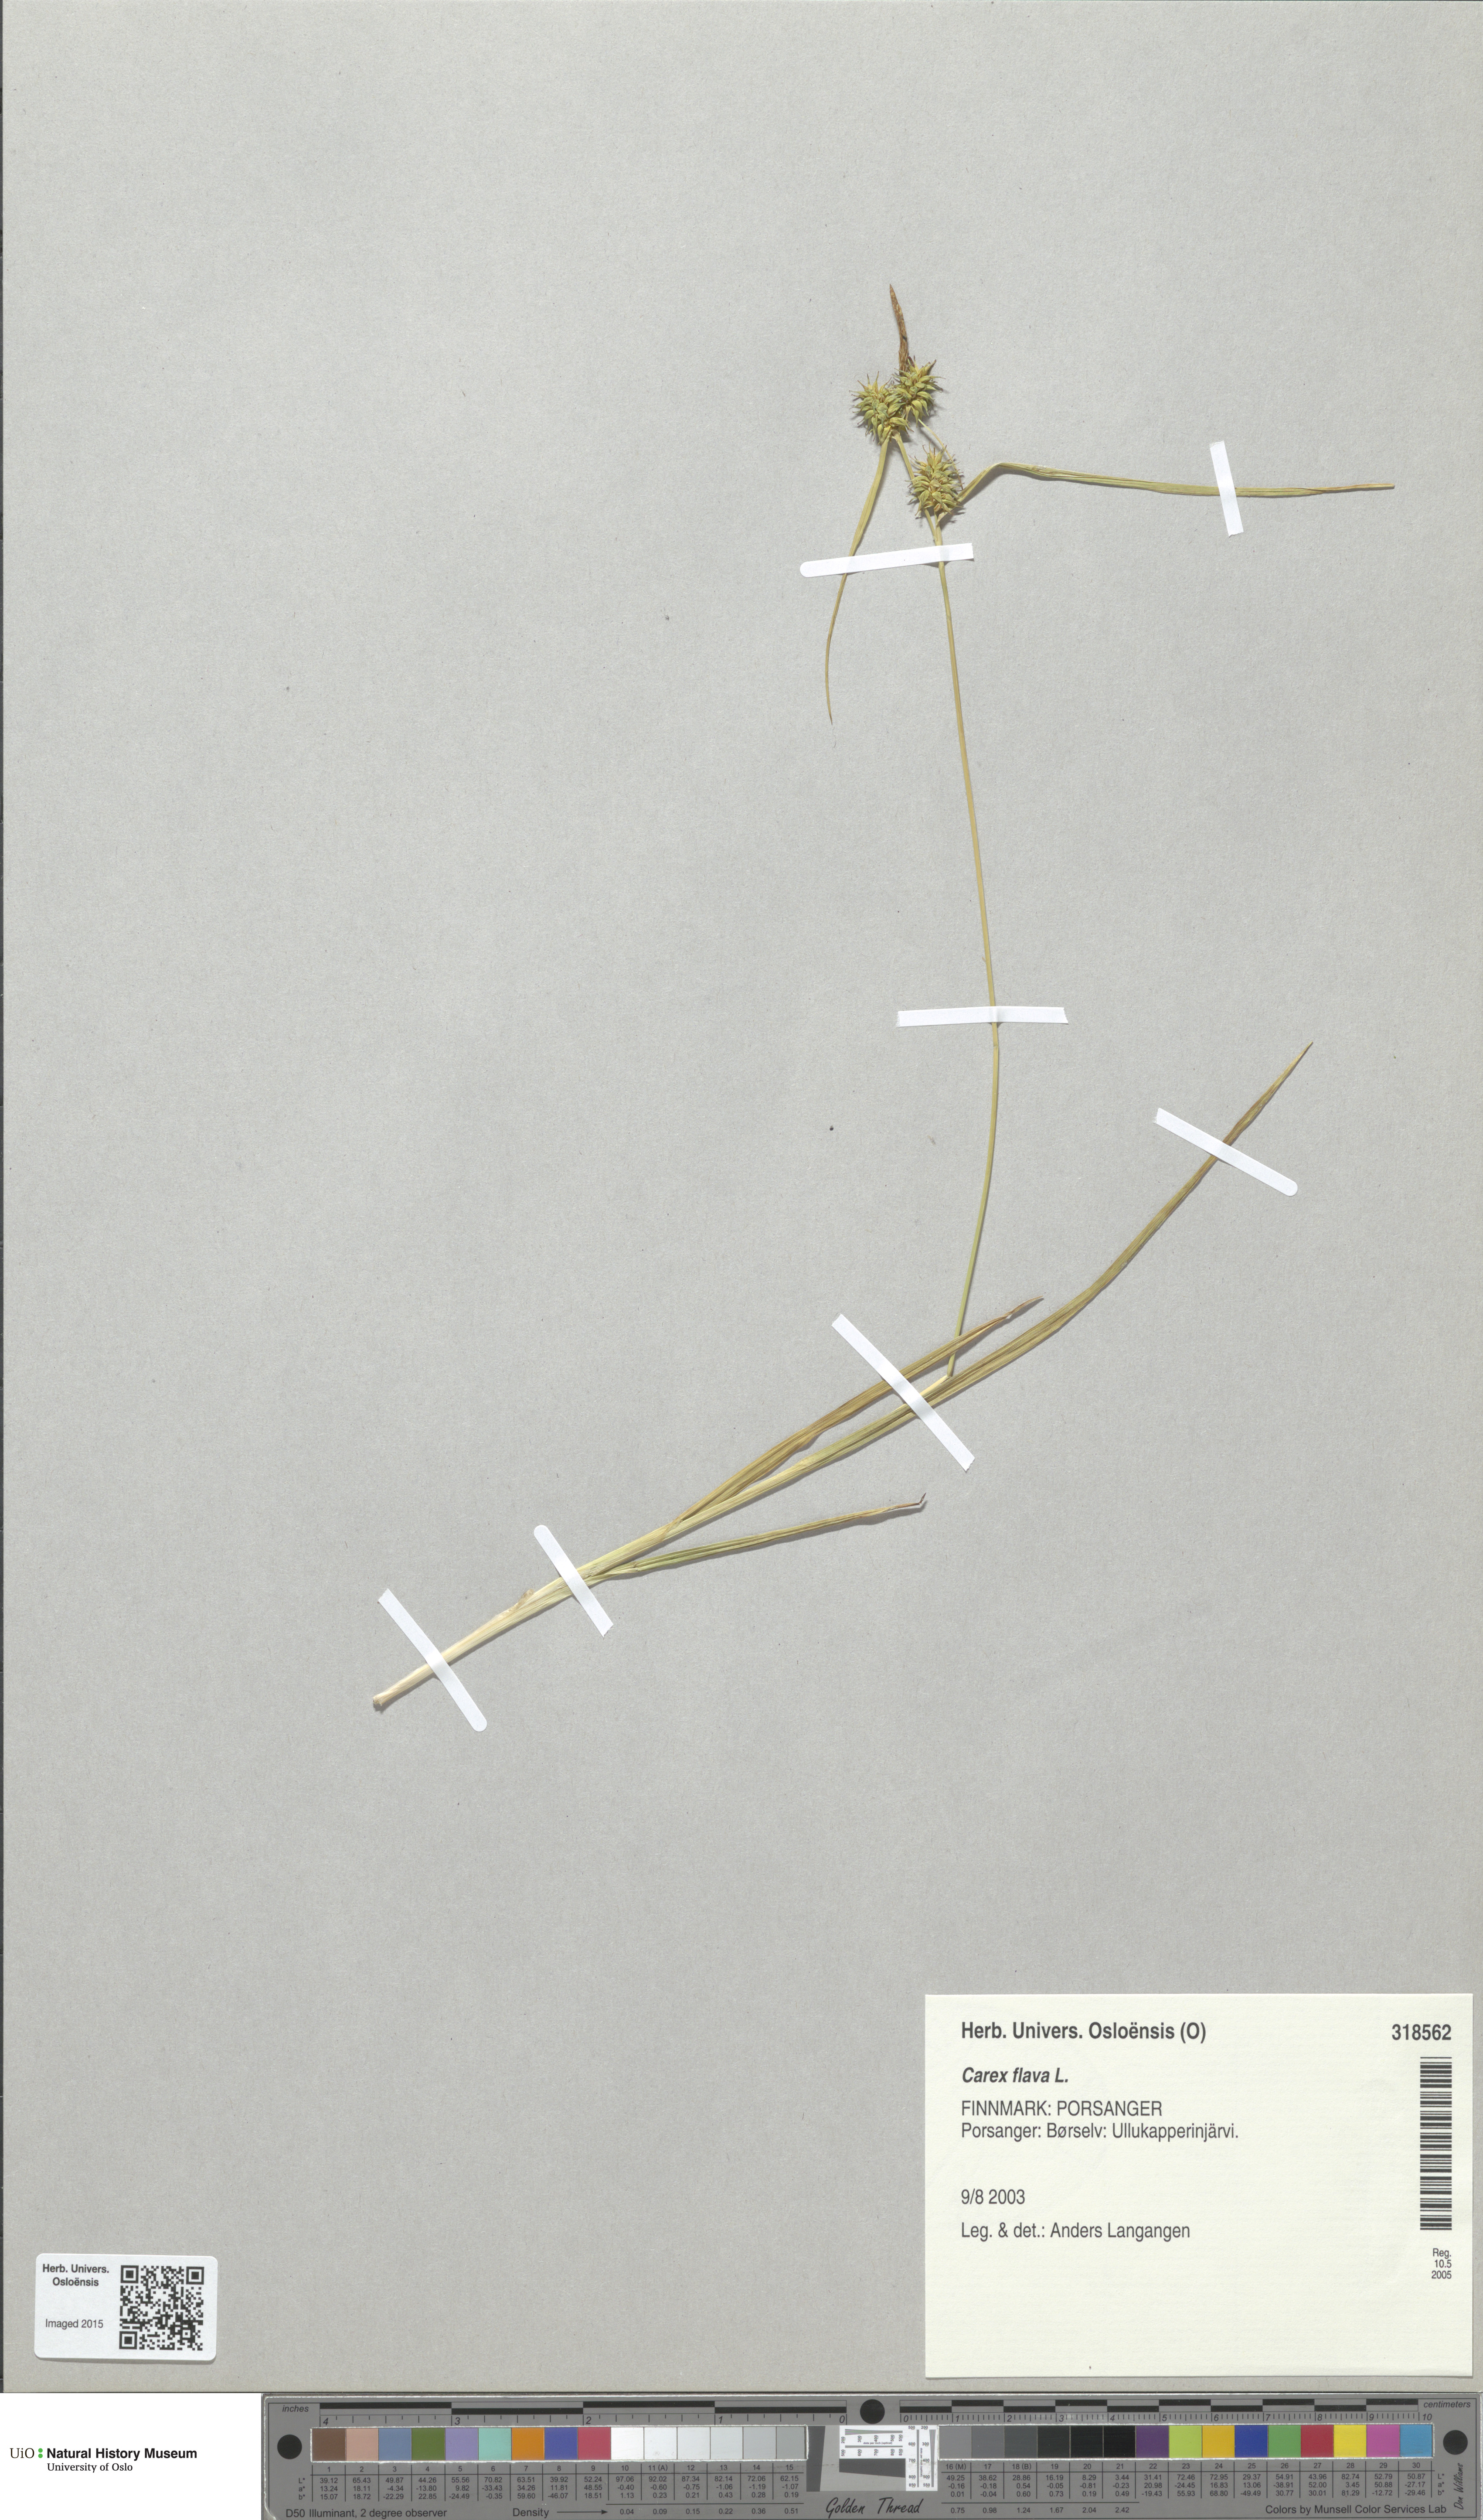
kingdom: Plantae
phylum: Tracheophyta
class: Liliopsida
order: Poales
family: Cyperaceae
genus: Carex
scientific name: Carex flava
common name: Large yellow-sedge
